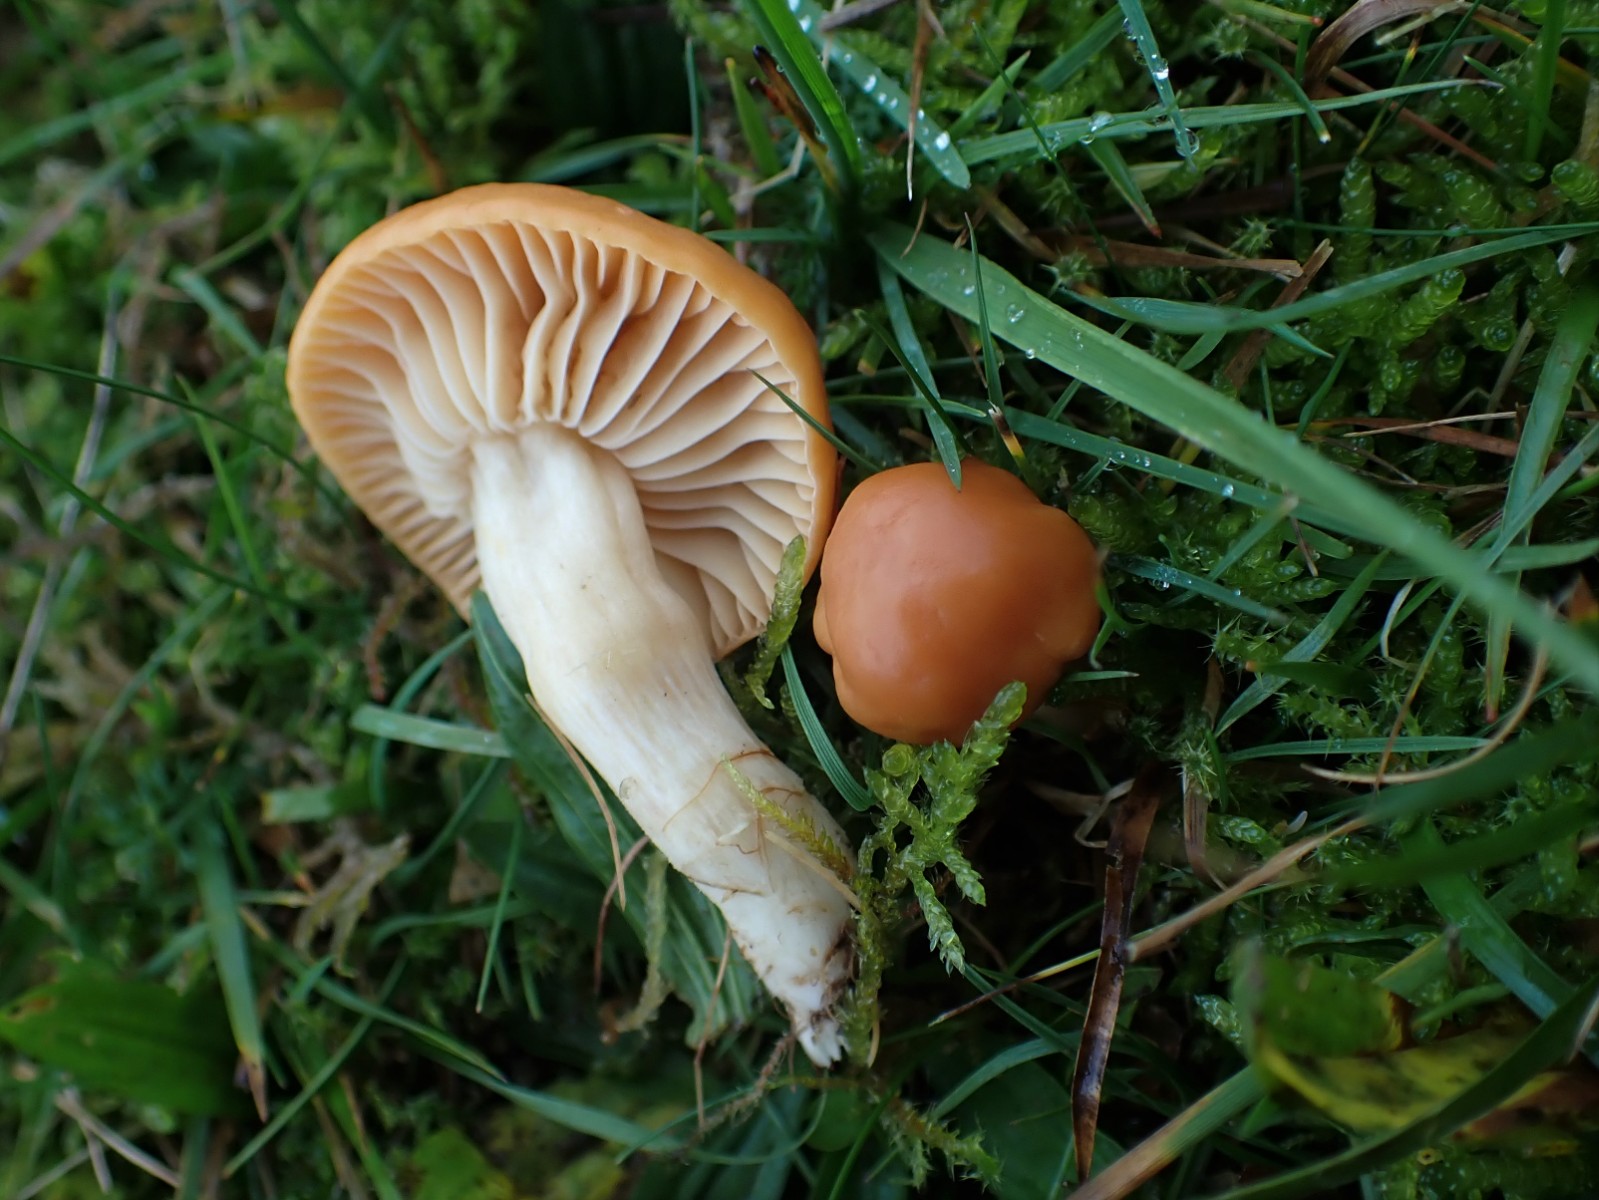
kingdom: Fungi
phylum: Basidiomycota
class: Agaricomycetes
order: Agaricales
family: Hygrophoraceae
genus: Cuphophyllus
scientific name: Cuphophyllus pratensis
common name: eng-vokshat
